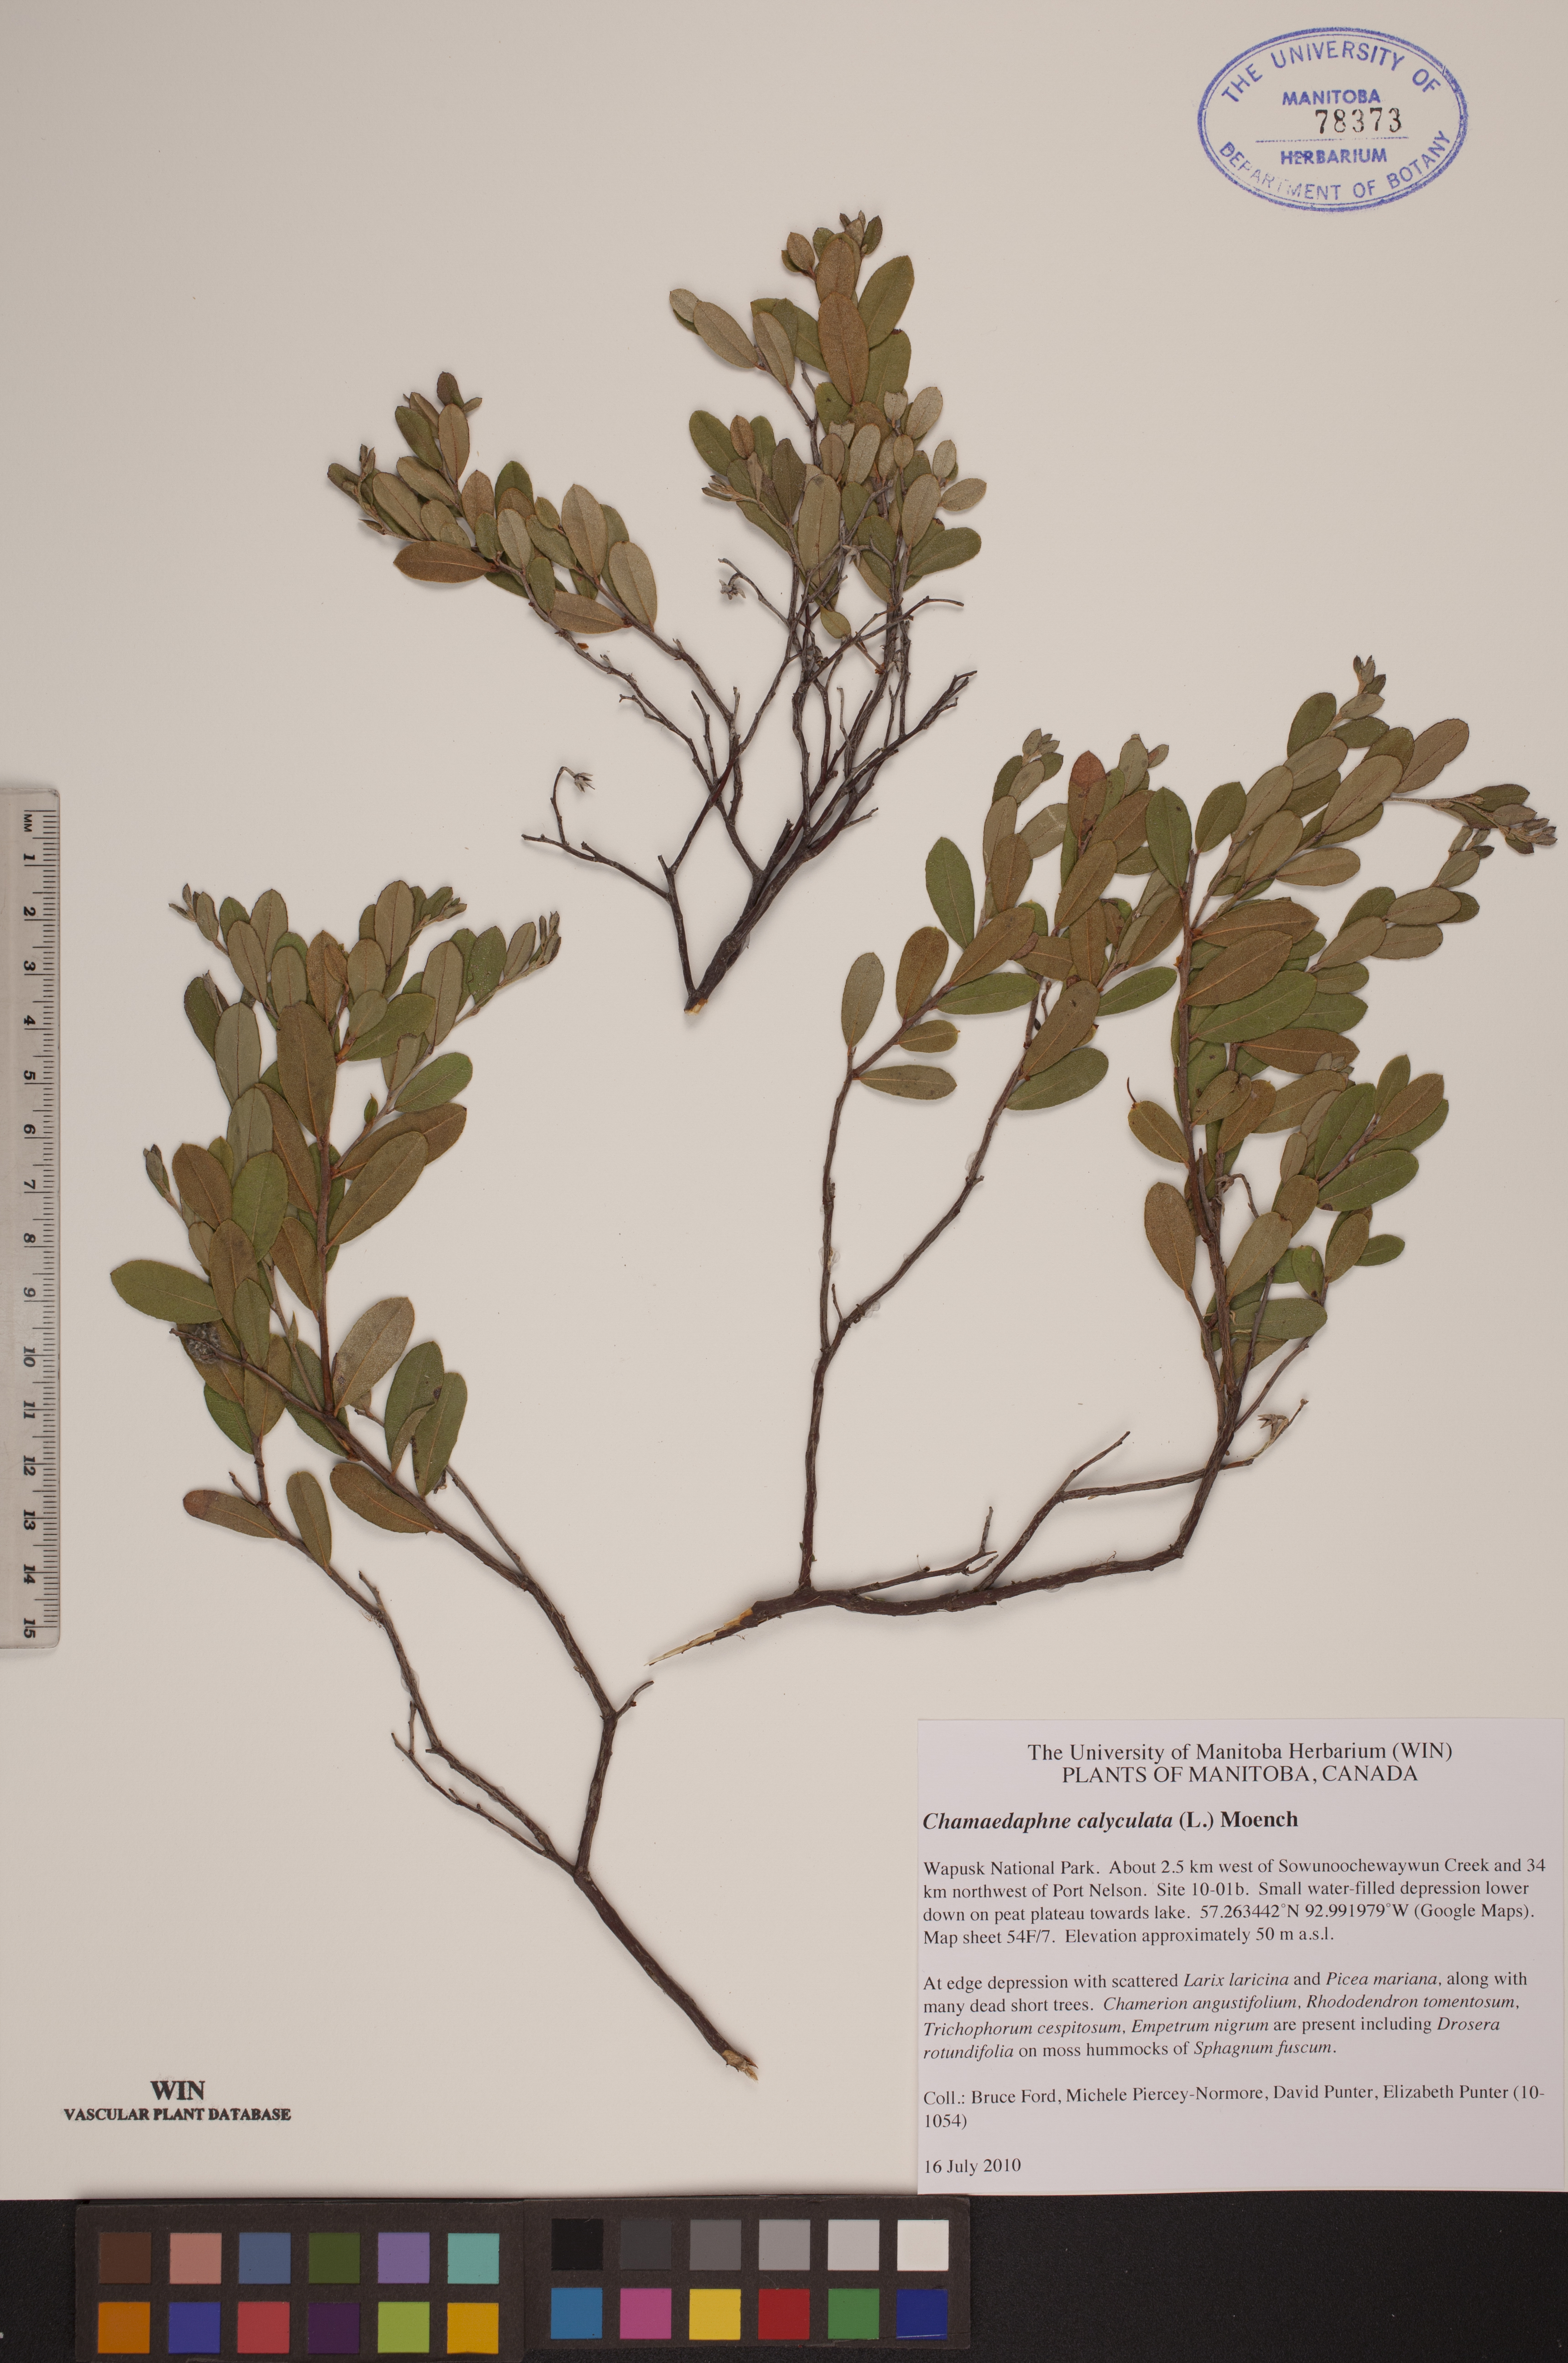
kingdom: Plantae
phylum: Tracheophyta
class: Magnoliopsida
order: Ericales
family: Ericaceae
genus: Chamaedaphne
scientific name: Chamaedaphne calyculata
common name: Leatherleaf
